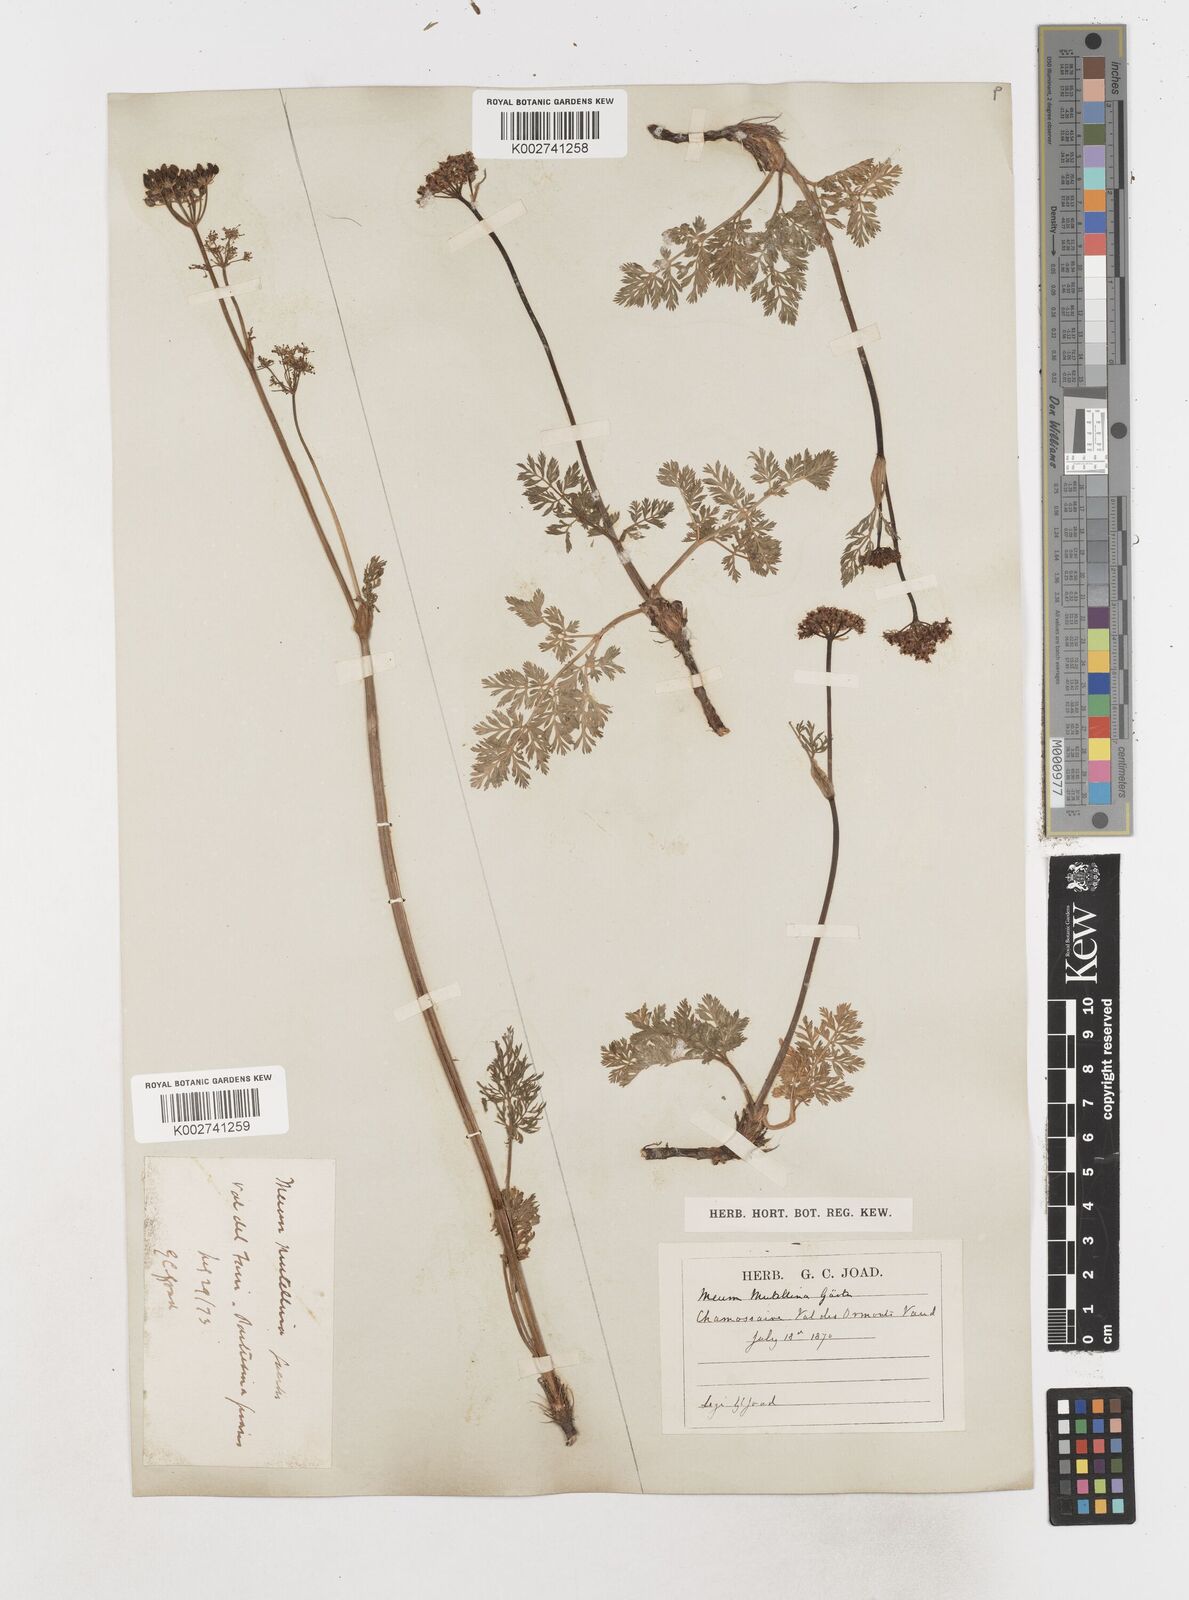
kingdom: Plantae
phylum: Tracheophyta
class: Magnoliopsida
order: Apiales
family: Apiaceae
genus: Mutellina
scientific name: Mutellina adonidifolia
